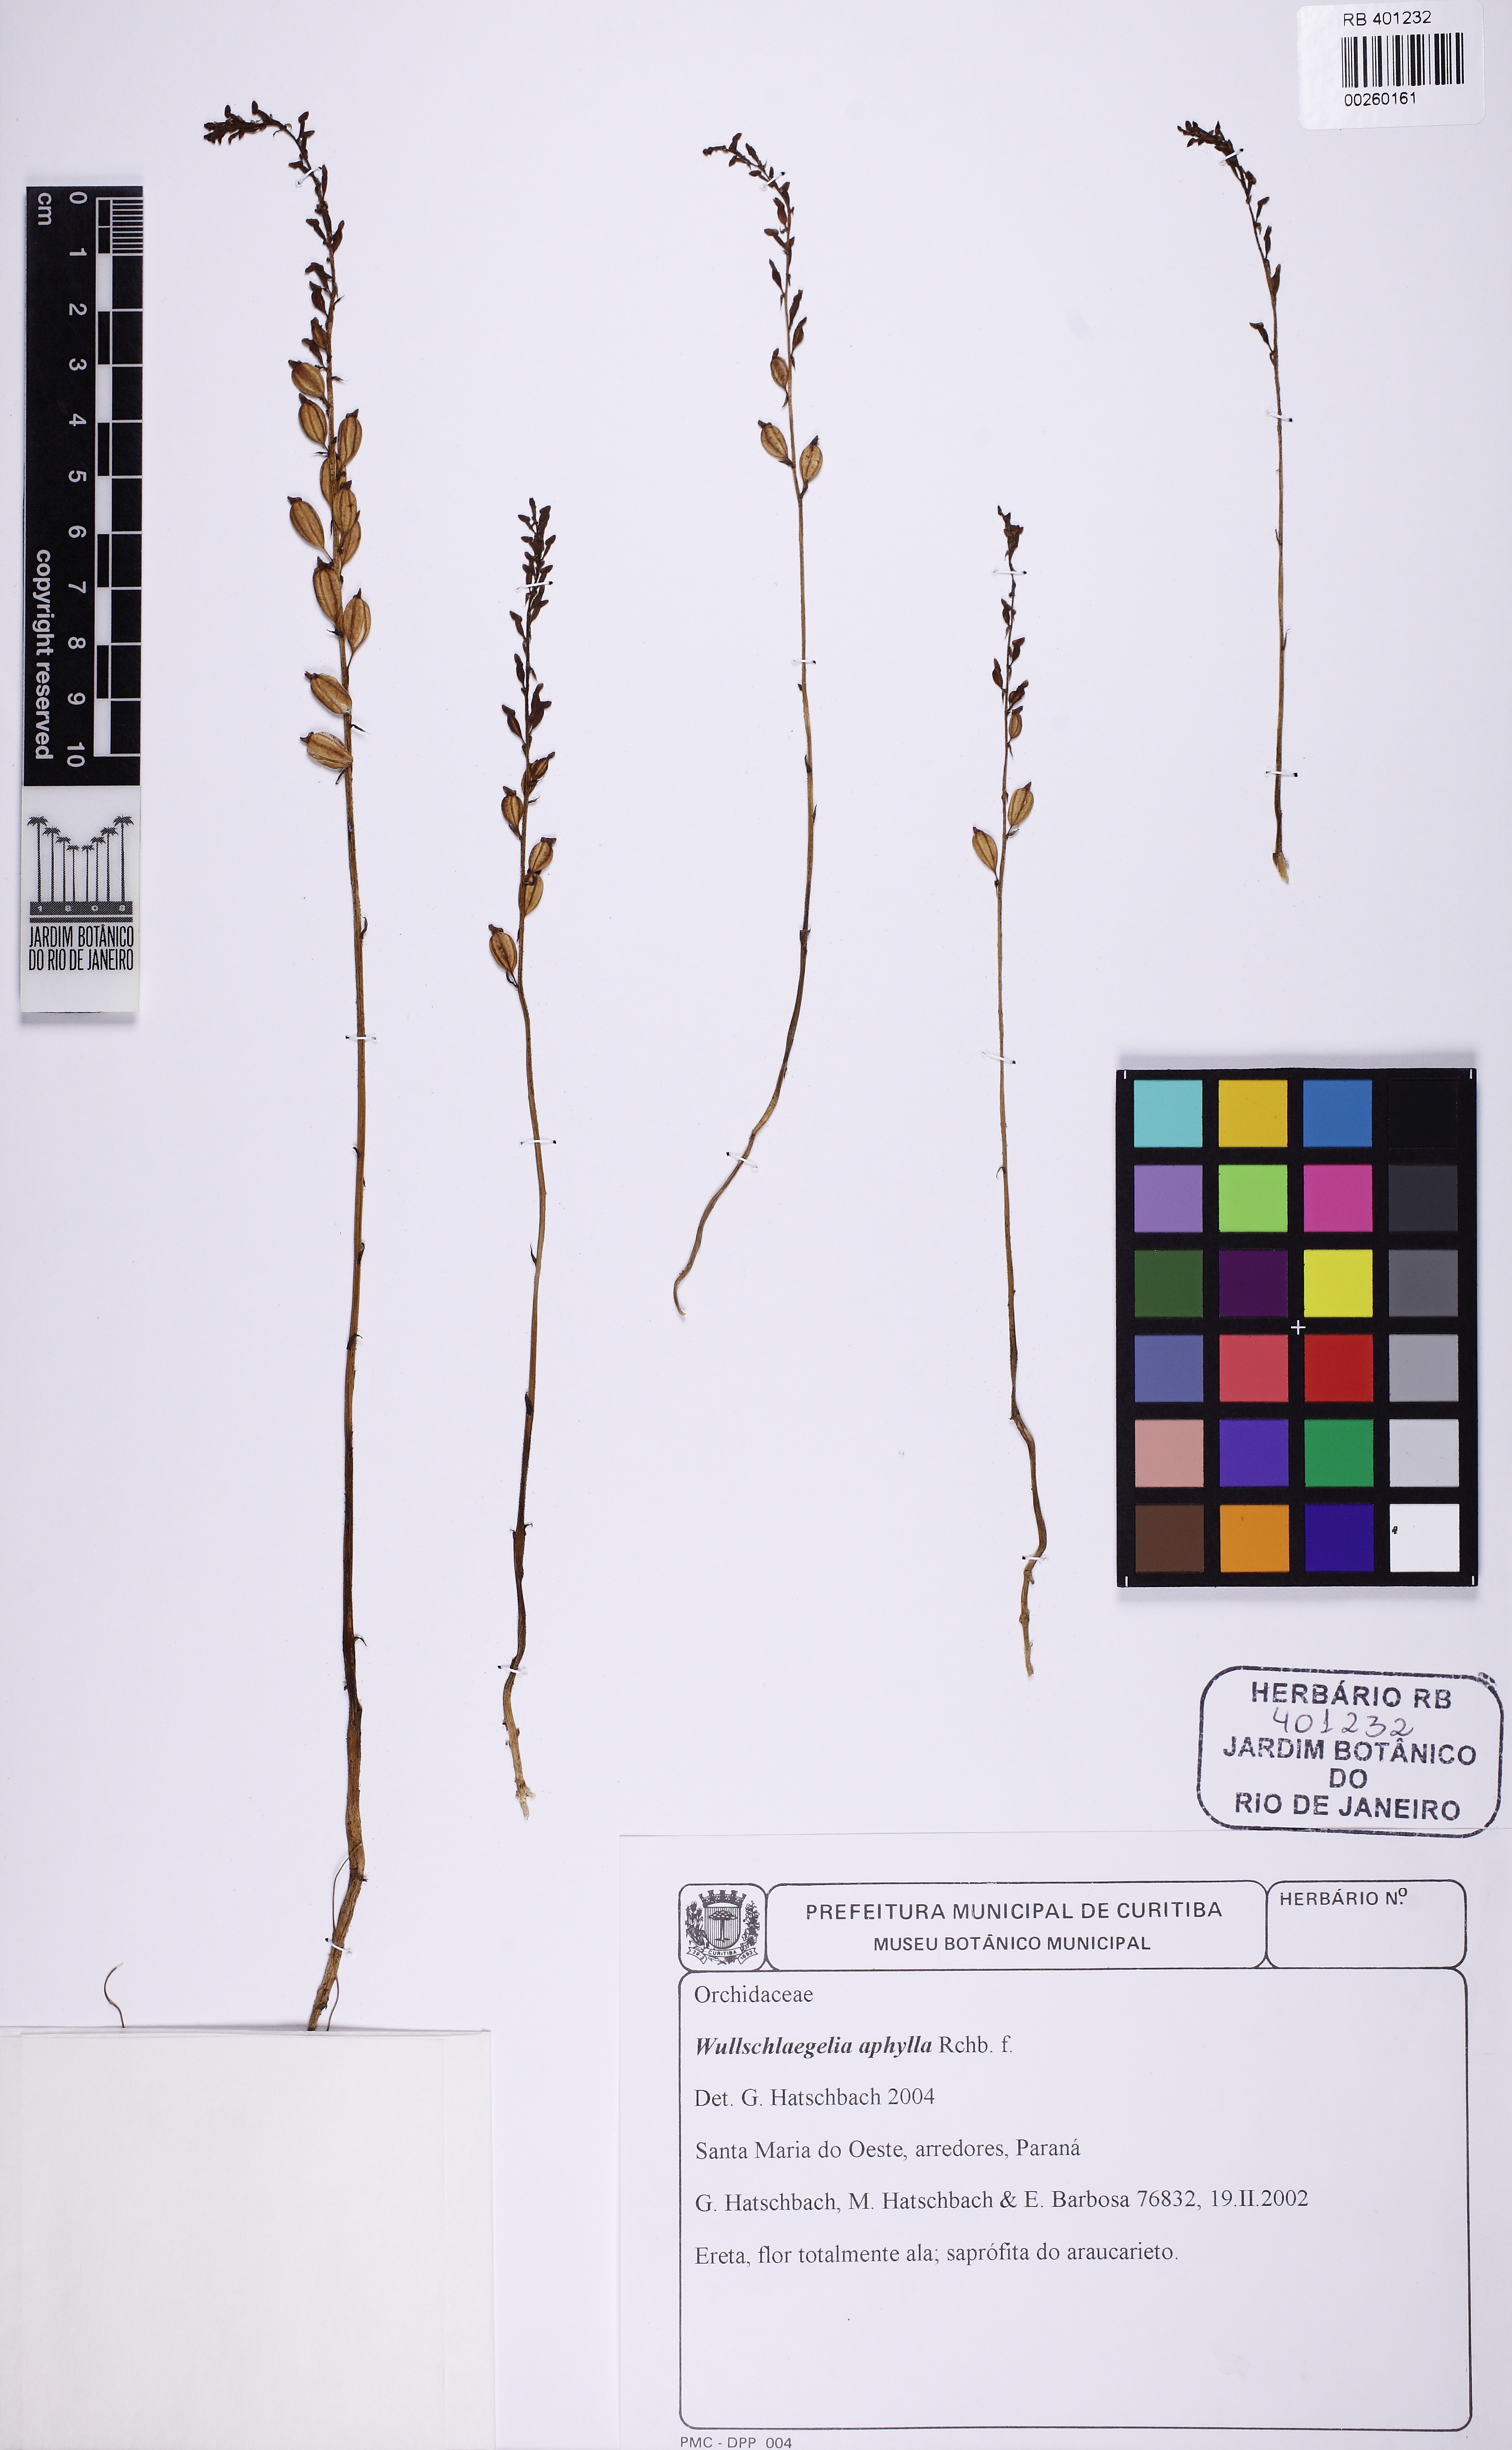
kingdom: Plantae
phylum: Tracheophyta
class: Liliopsida
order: Asparagales
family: Orchidaceae
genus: Wullschlaegelia
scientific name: Wullschlaegelia aphylla
